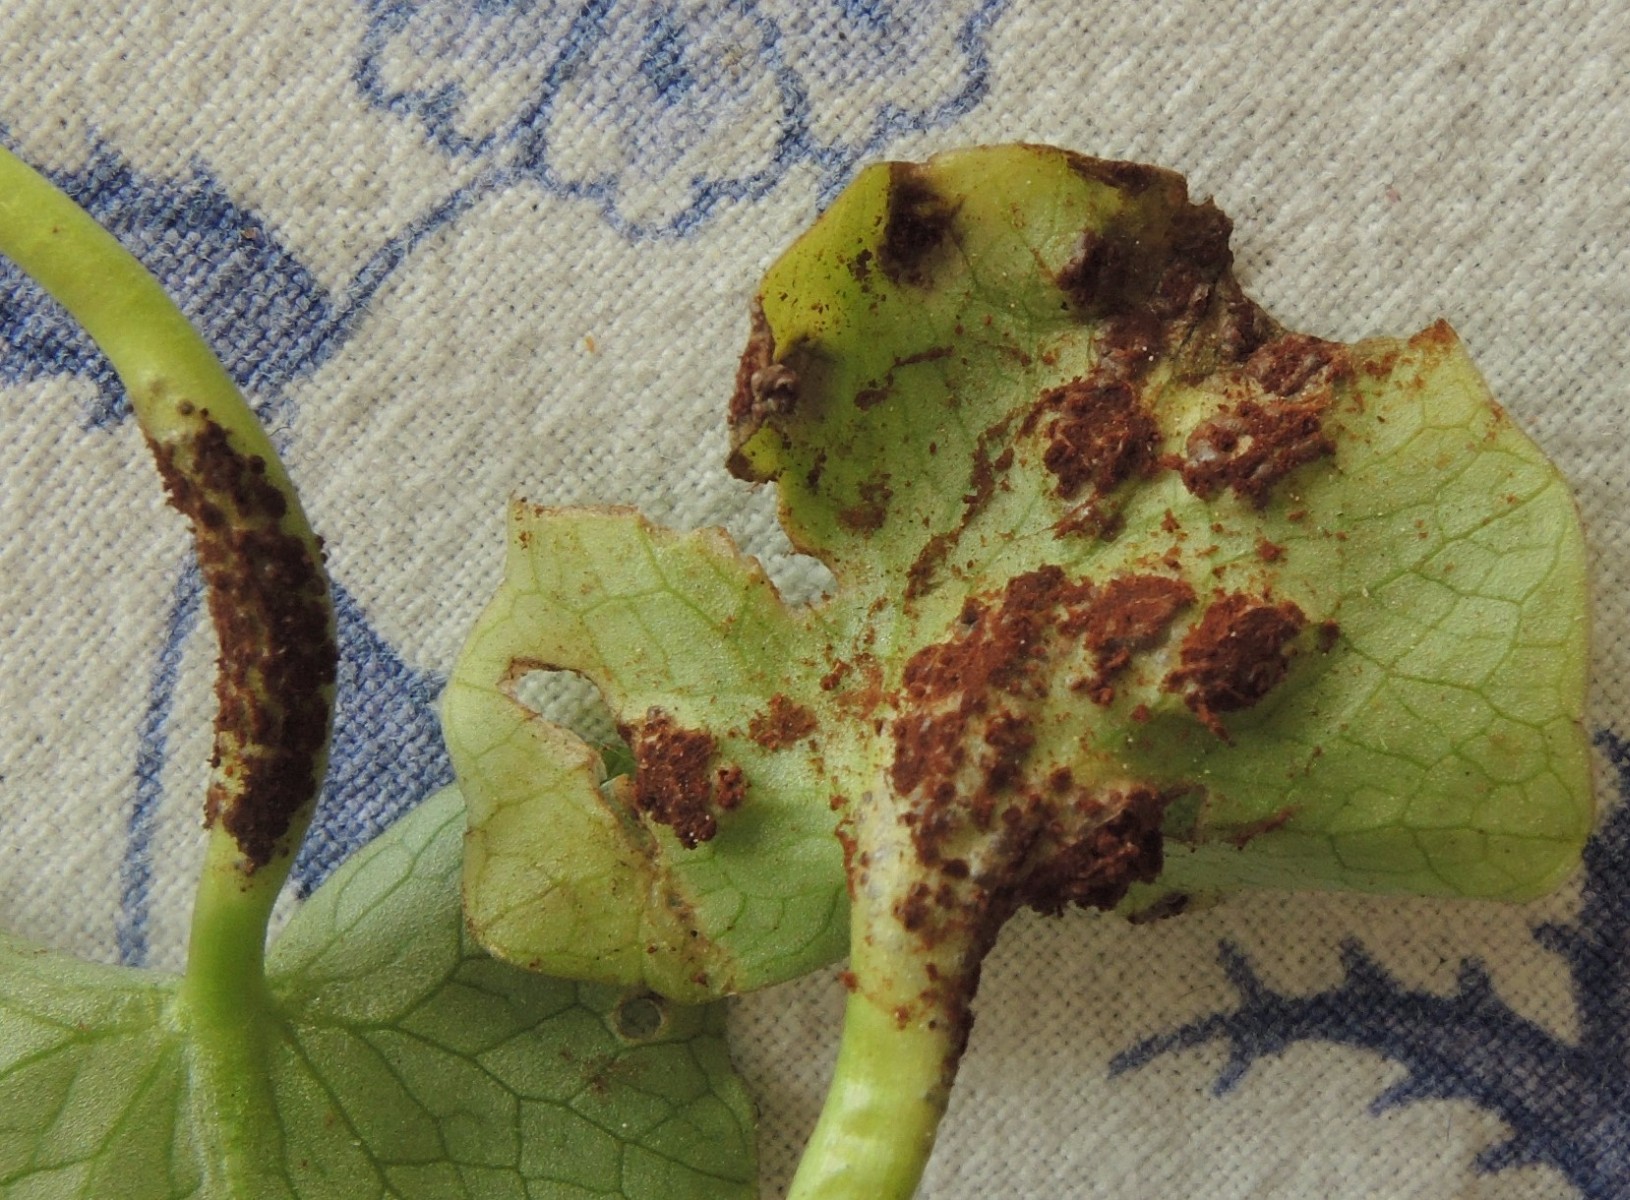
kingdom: Fungi
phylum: Basidiomycota
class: Pucciniomycetes
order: Pucciniales
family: Pucciniaceae
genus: Uromyces
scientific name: Uromyces ficariae
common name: vorterod-encellerust
